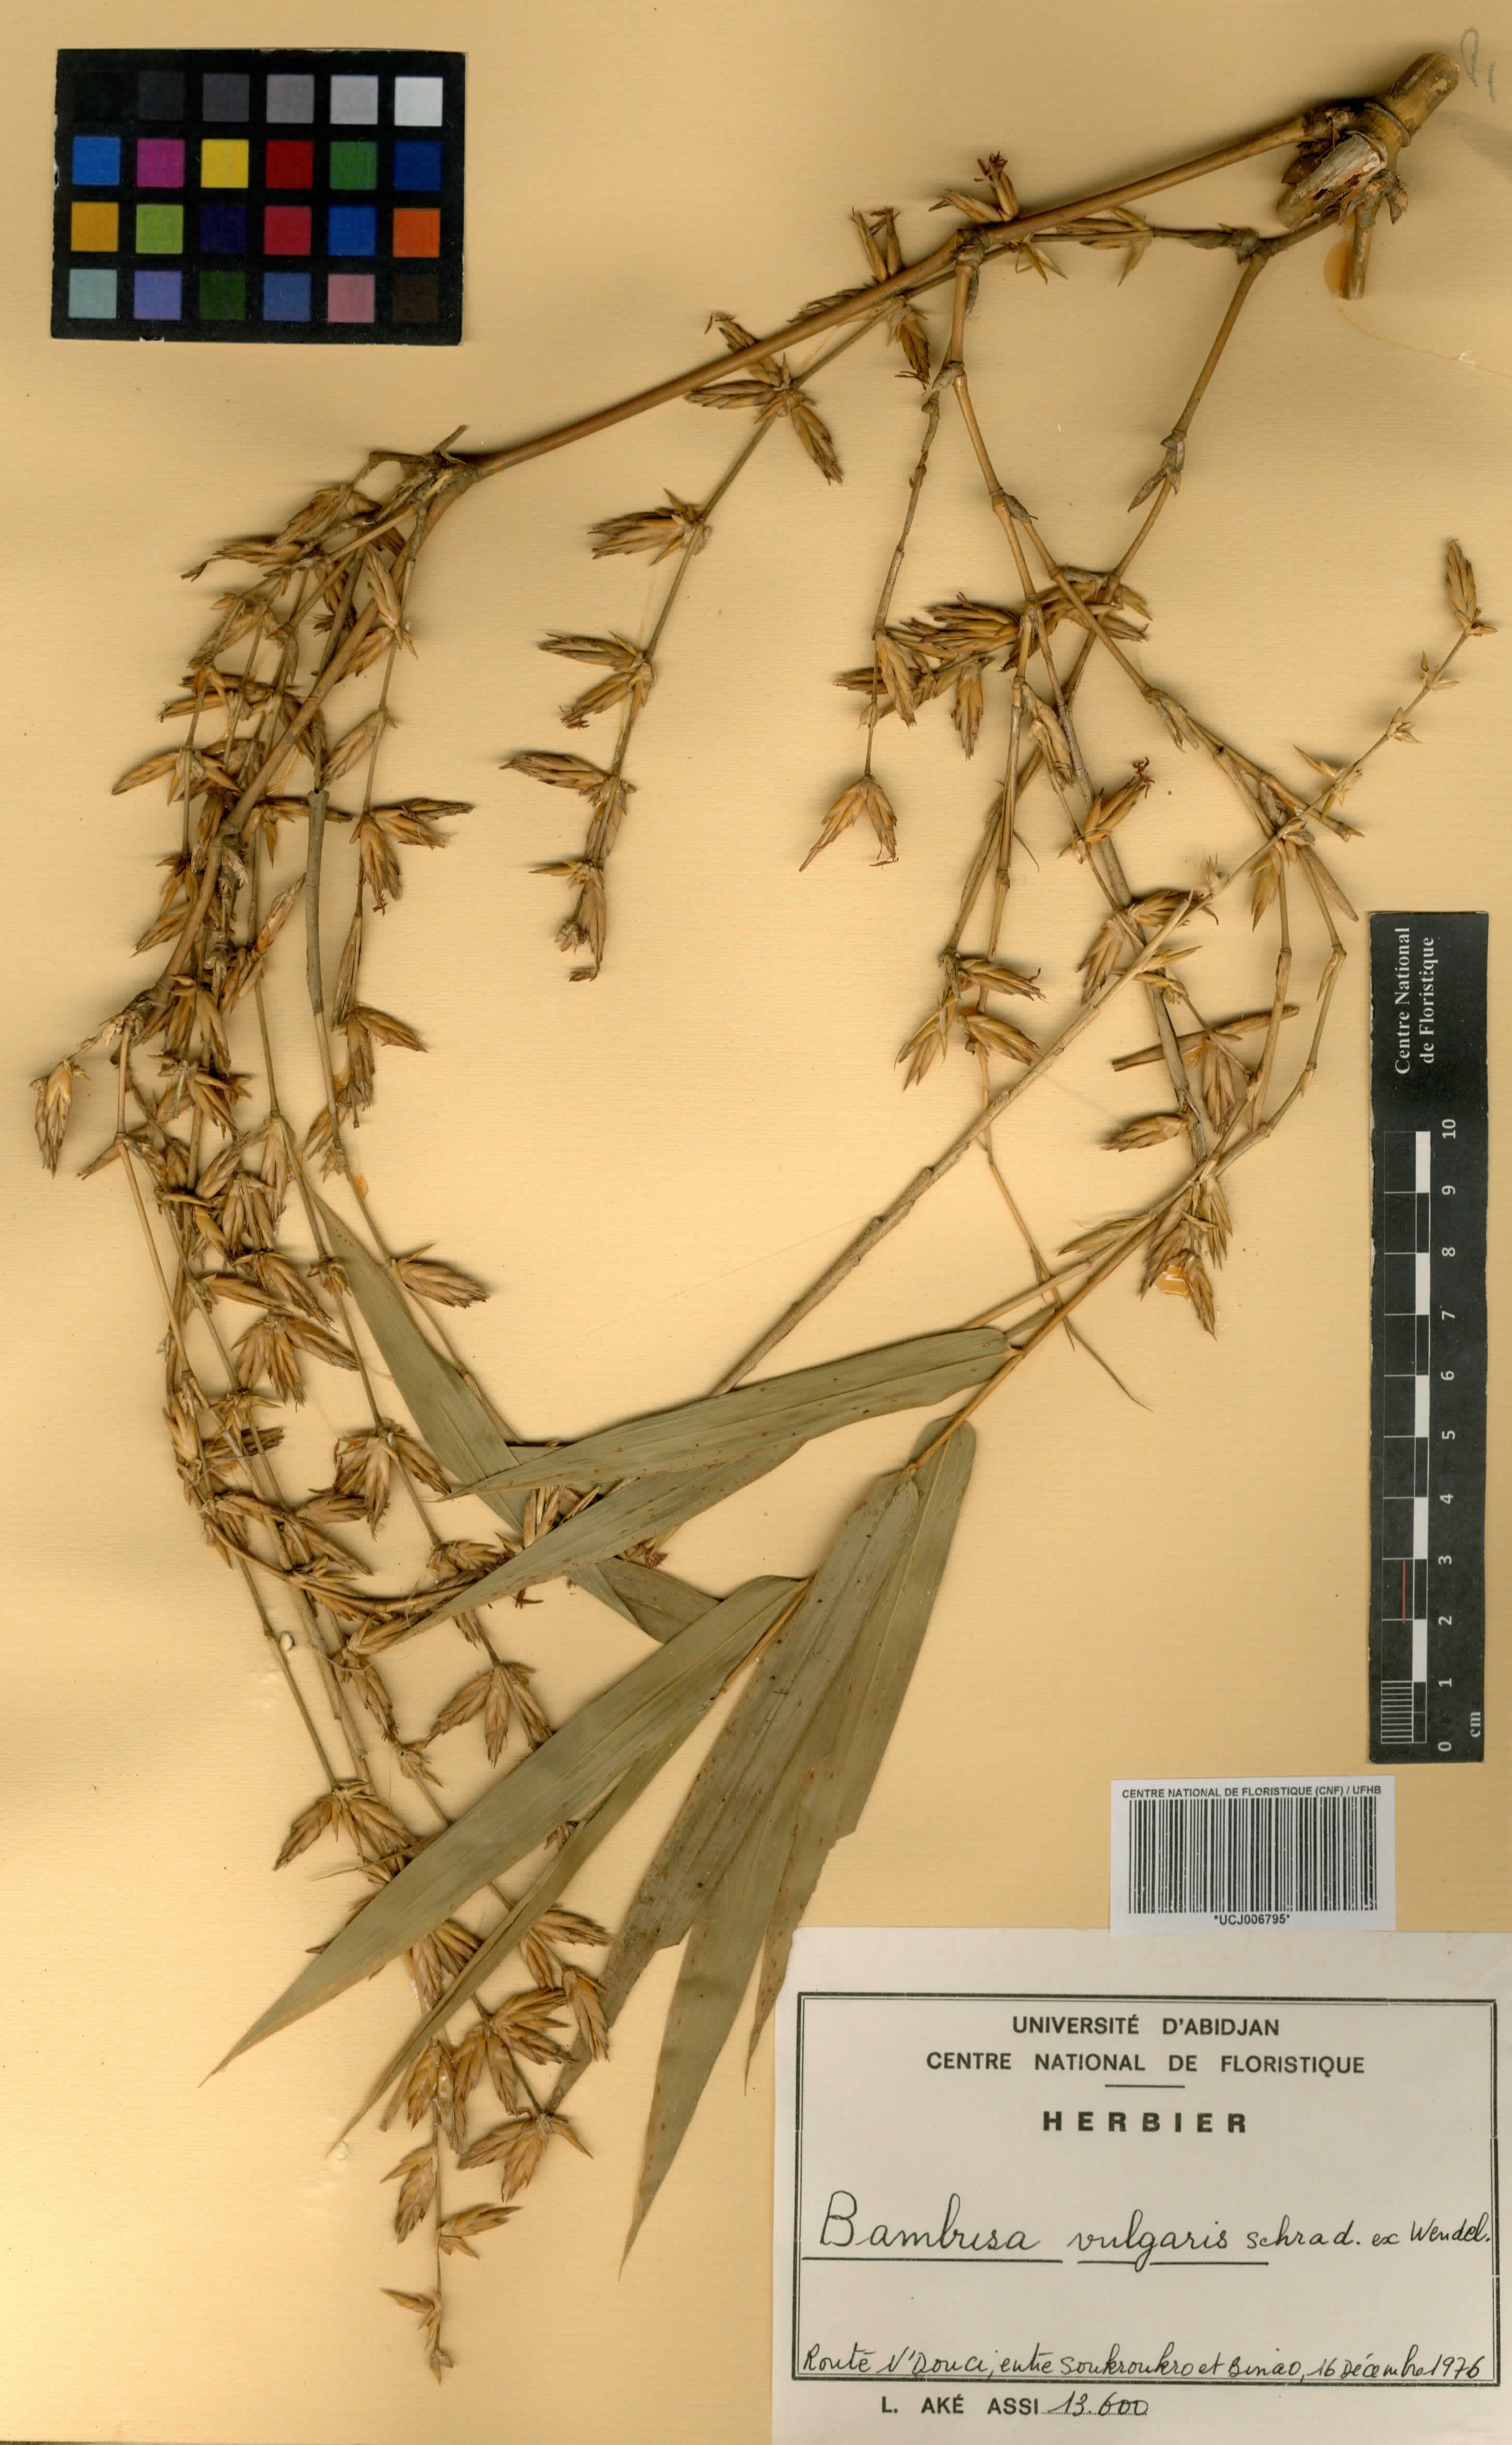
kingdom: Plantae
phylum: Tracheophyta
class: Liliopsida
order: Poales
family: Poaceae
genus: Bambusa
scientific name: Bambusa vulgaris
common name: Common bamboo
